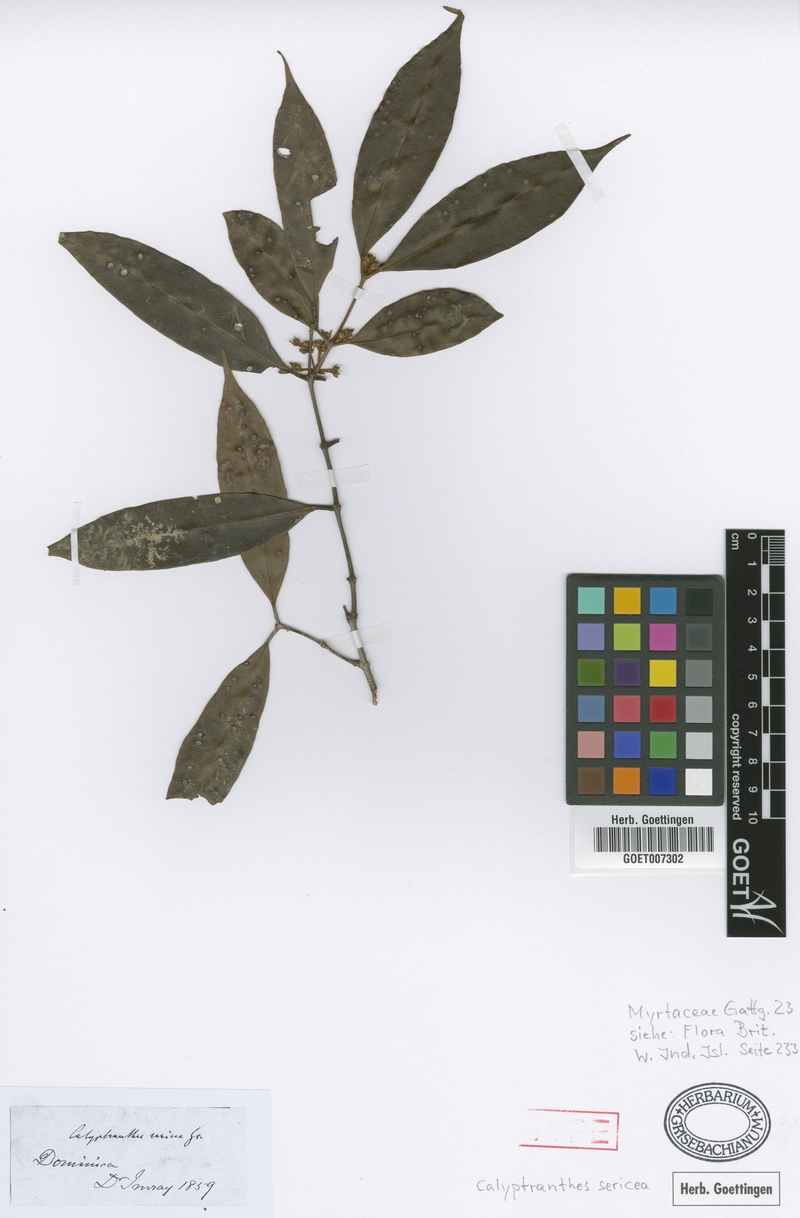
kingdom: Plantae
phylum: Tracheophyta
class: Magnoliopsida
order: Myrtales
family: Myrtaceae
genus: Myrcia
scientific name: Myrcia fasciculata
